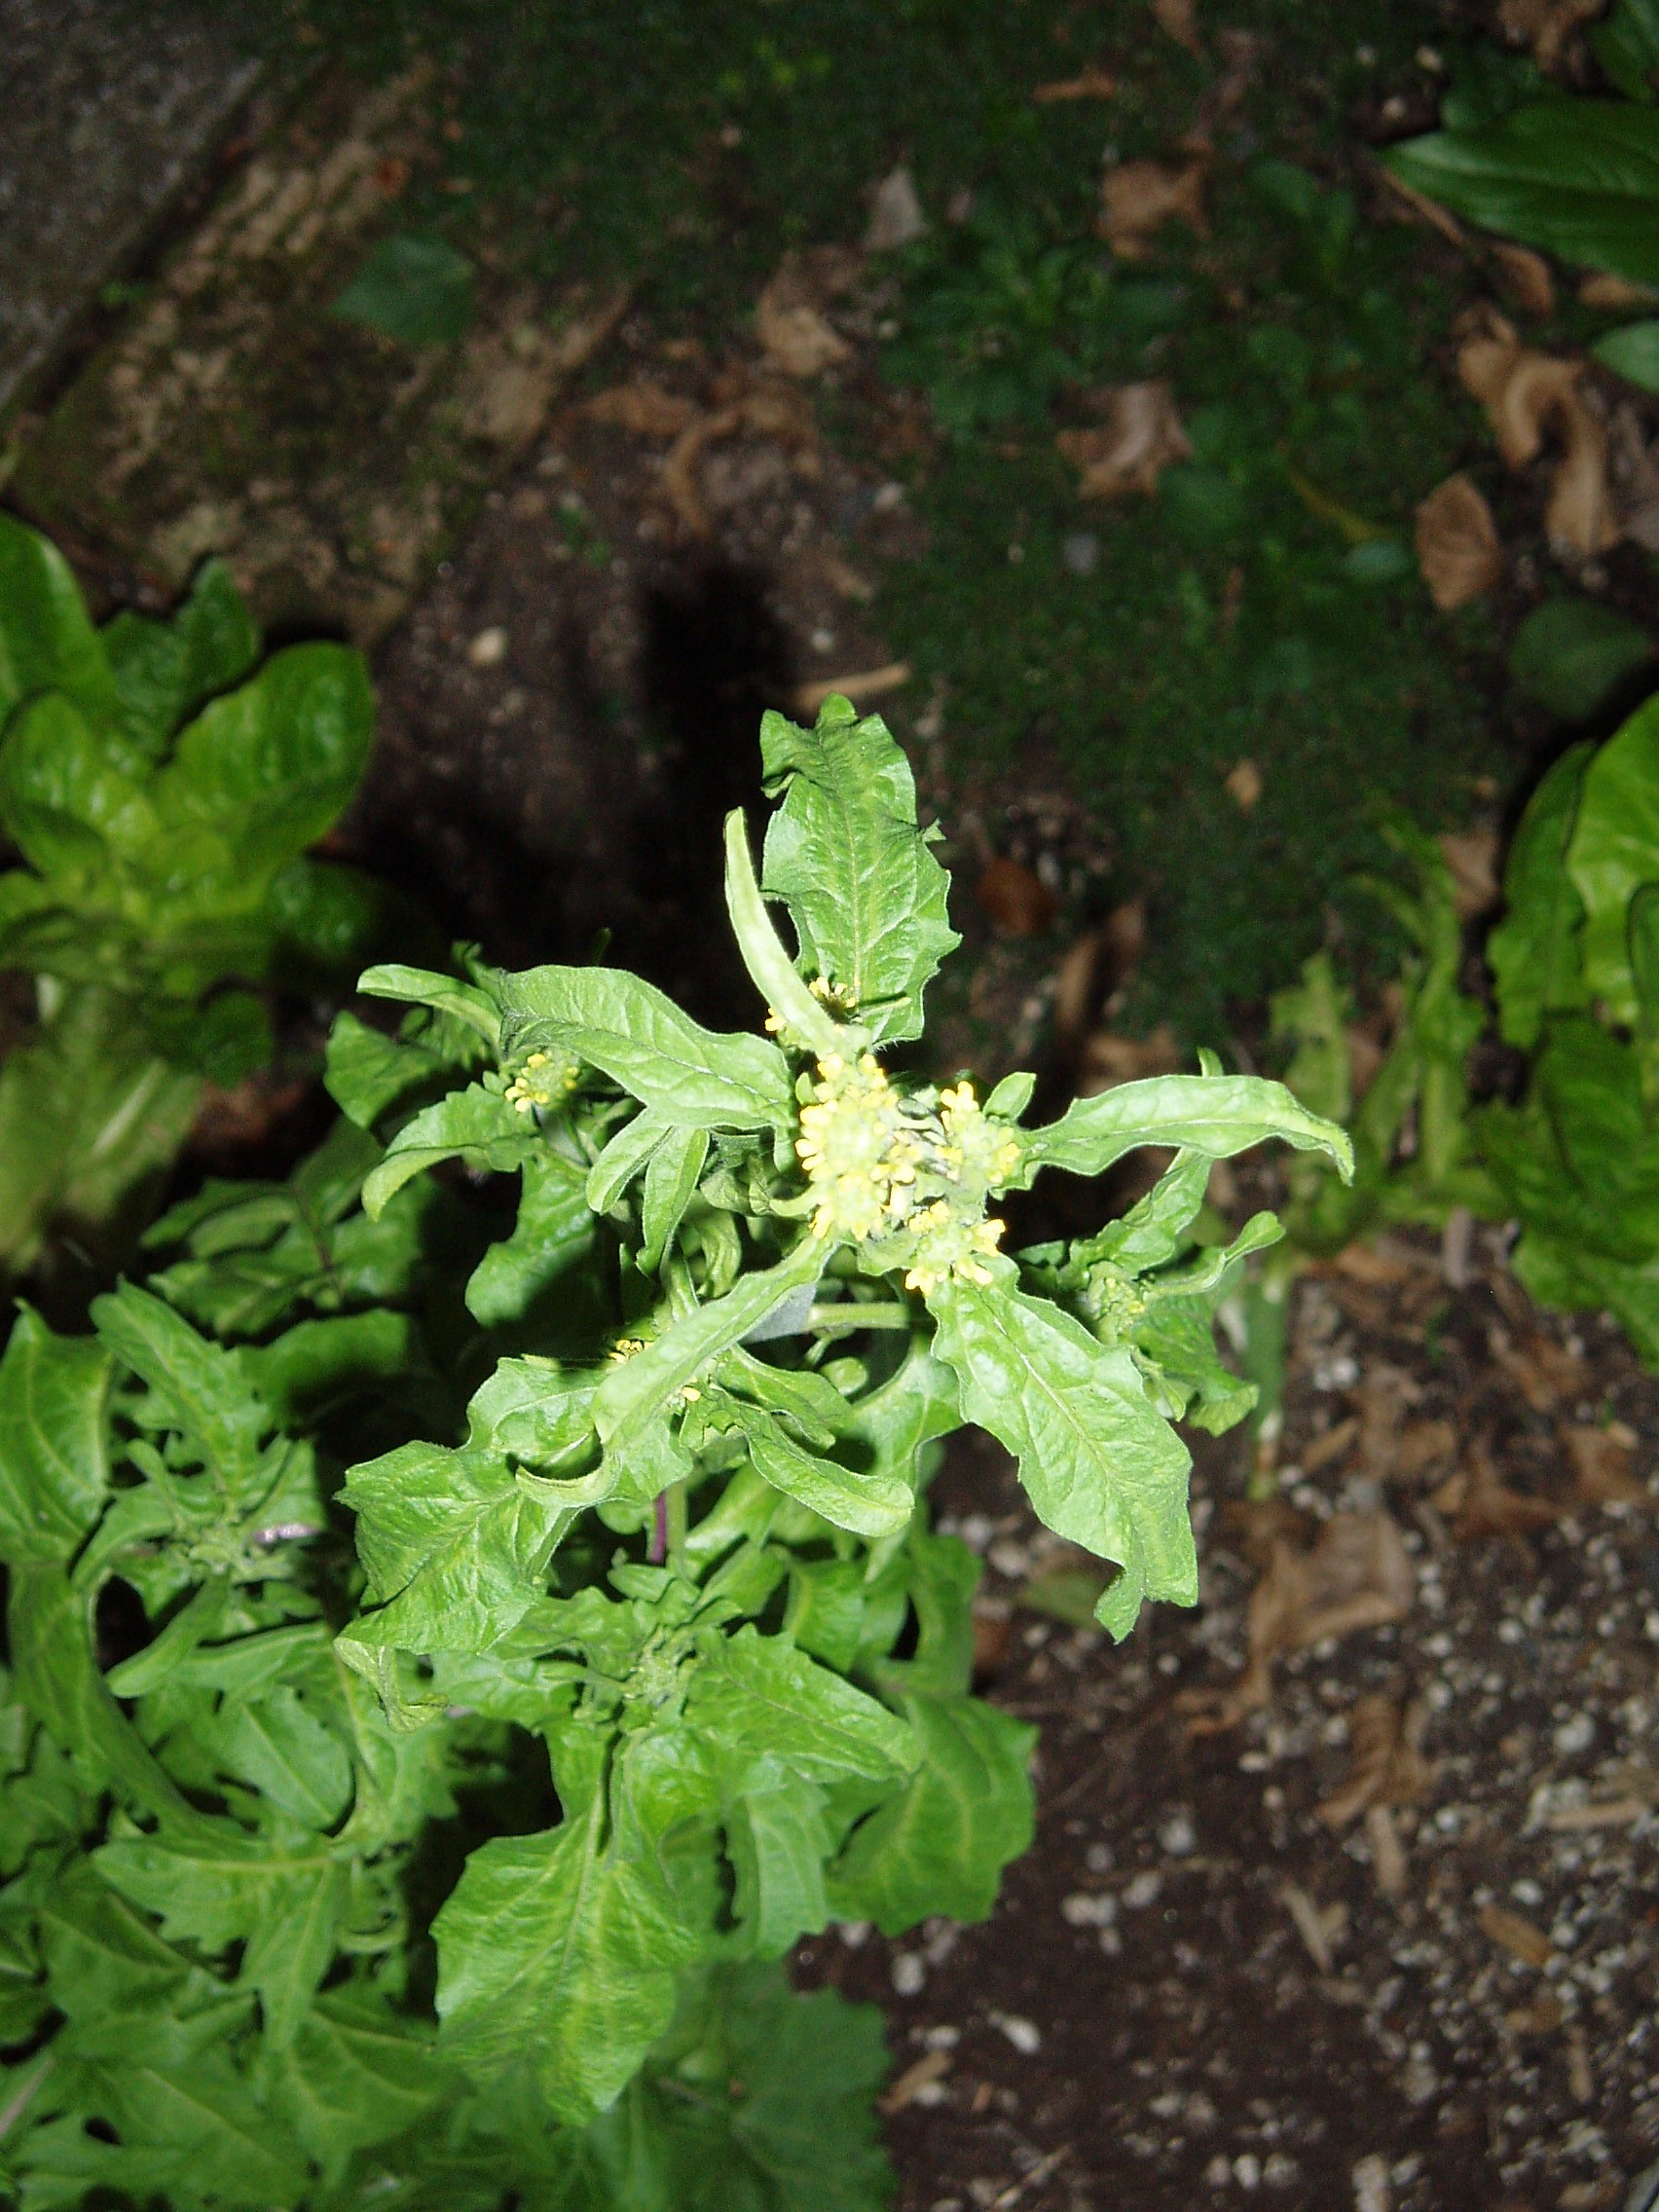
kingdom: Plantae
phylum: Tracheophyta
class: Magnoliopsida
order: Brassicales
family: Brassicaceae
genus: Sisymbrium
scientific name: Sisymbrium officinale
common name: Hedge mustard
